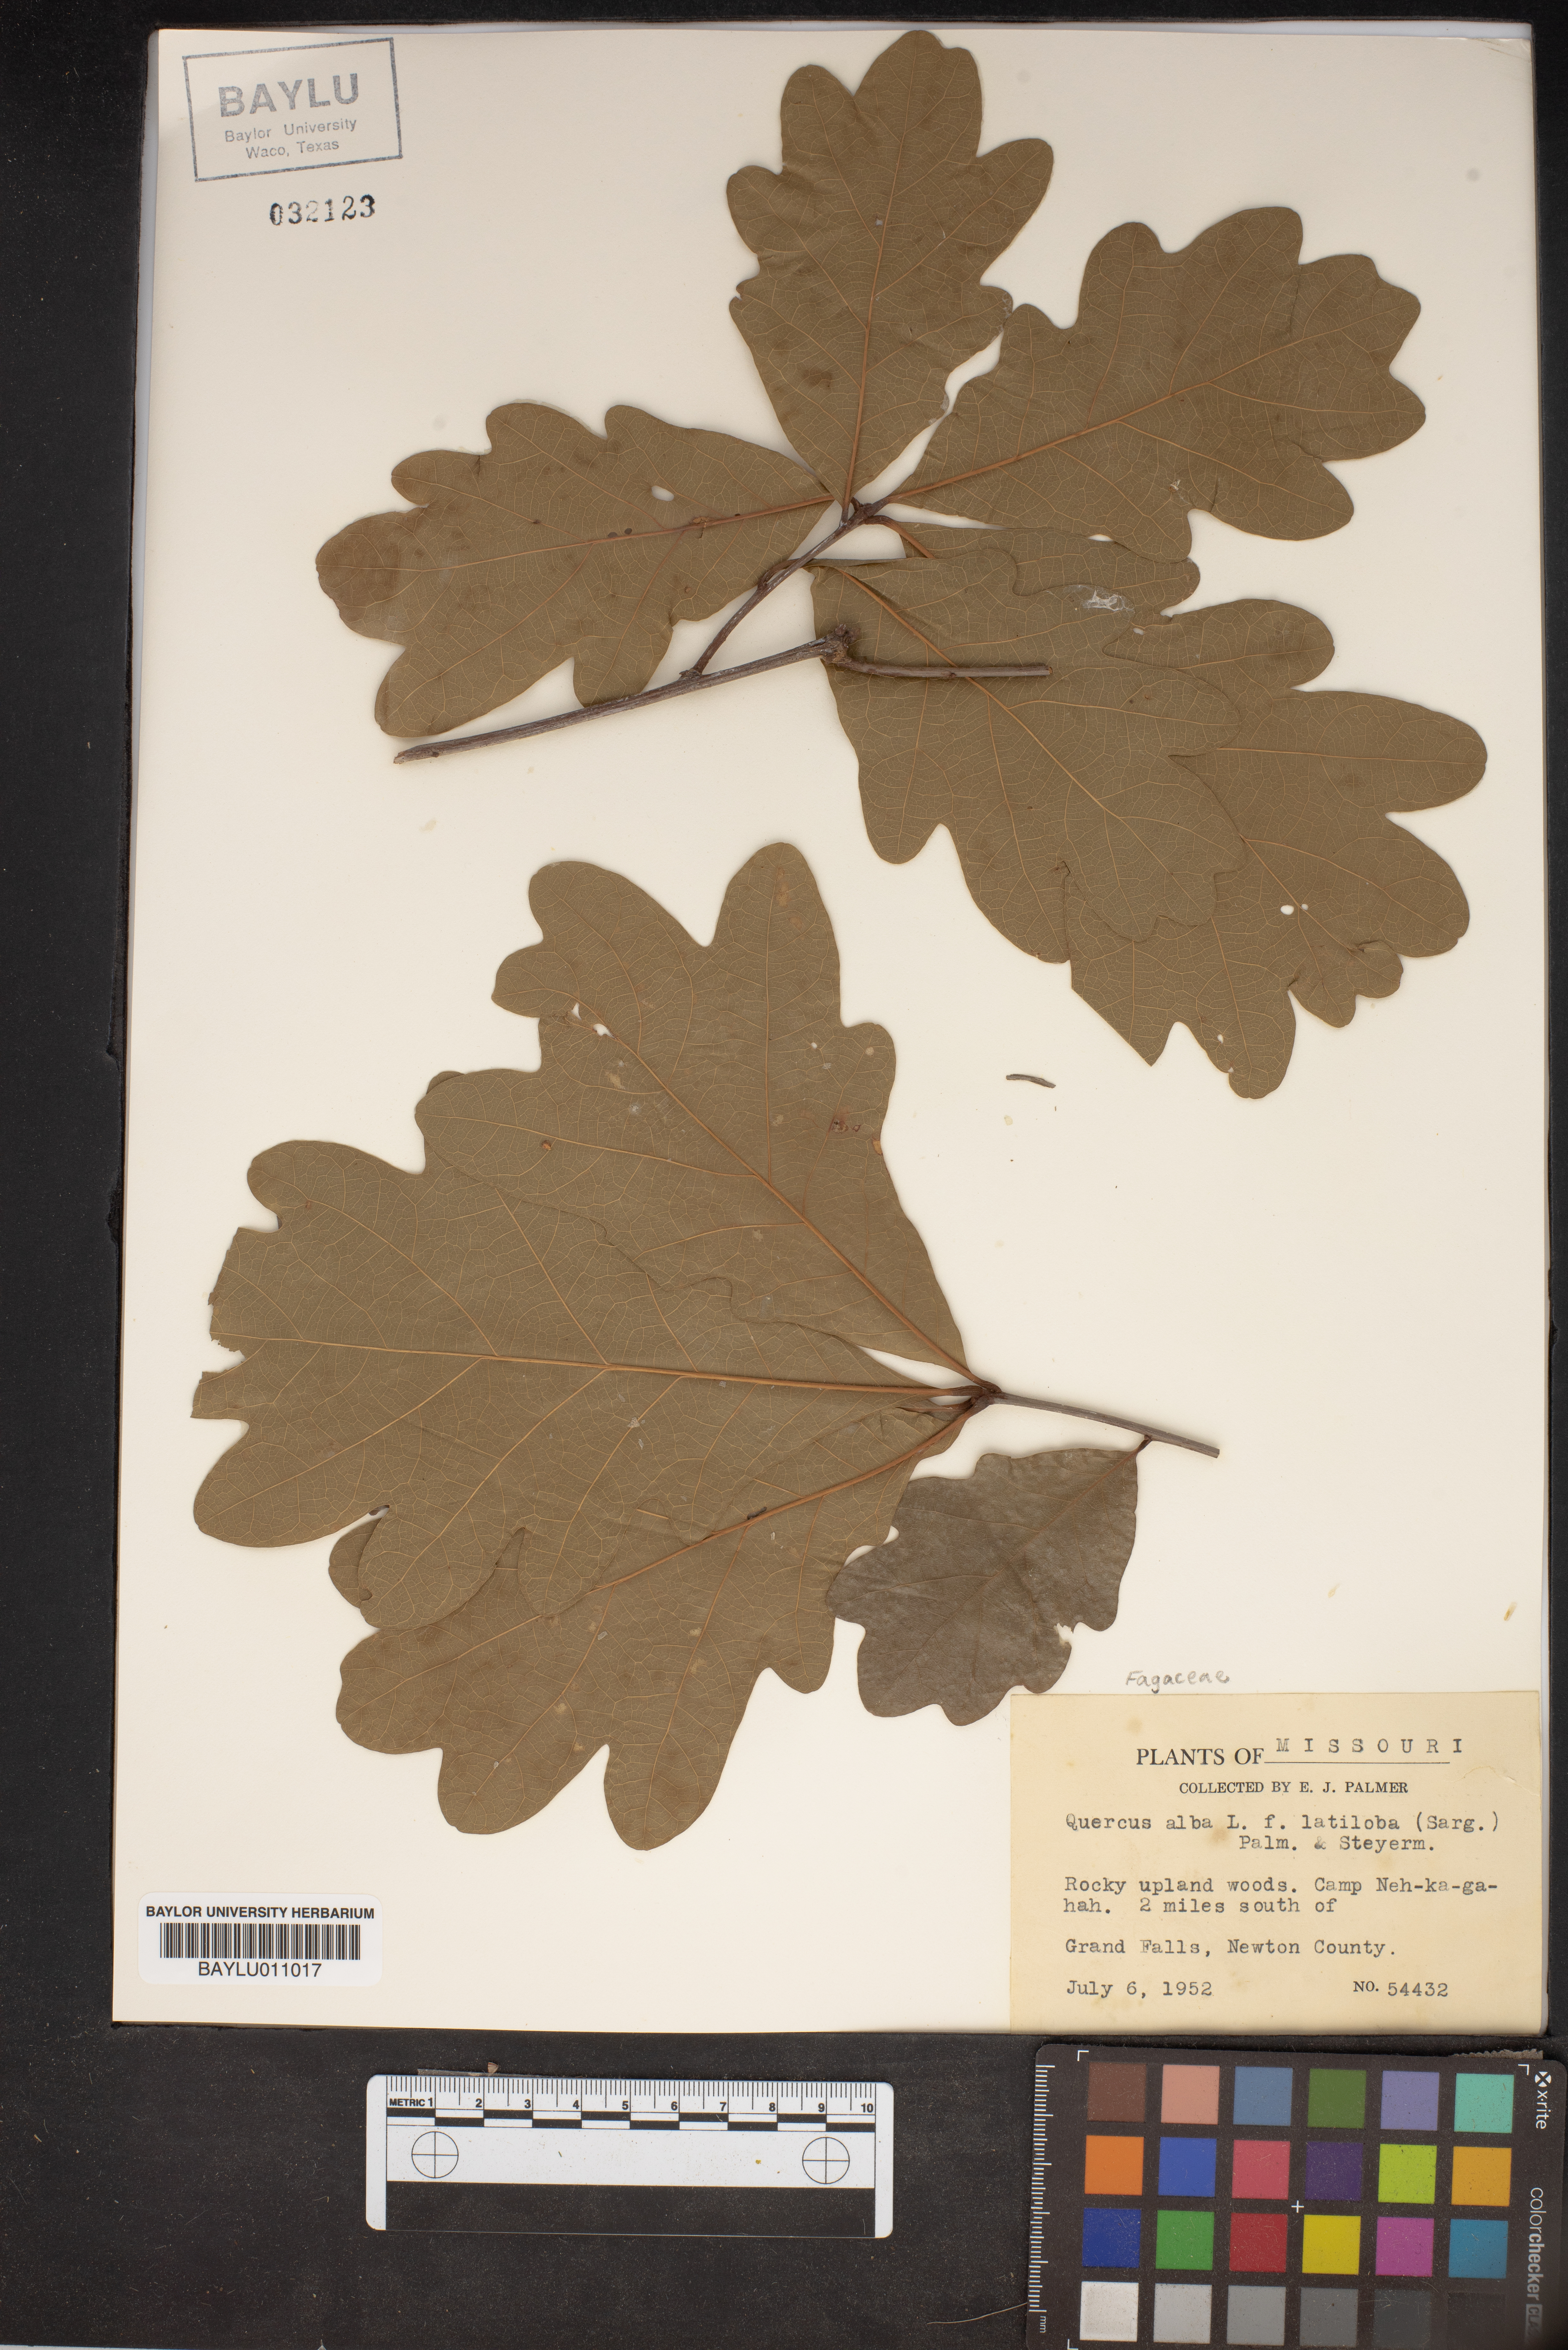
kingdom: Plantae
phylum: Tracheophyta
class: Magnoliopsida
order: Fagales
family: Fagaceae
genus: Quercus
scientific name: Quercus alba
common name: White oak
